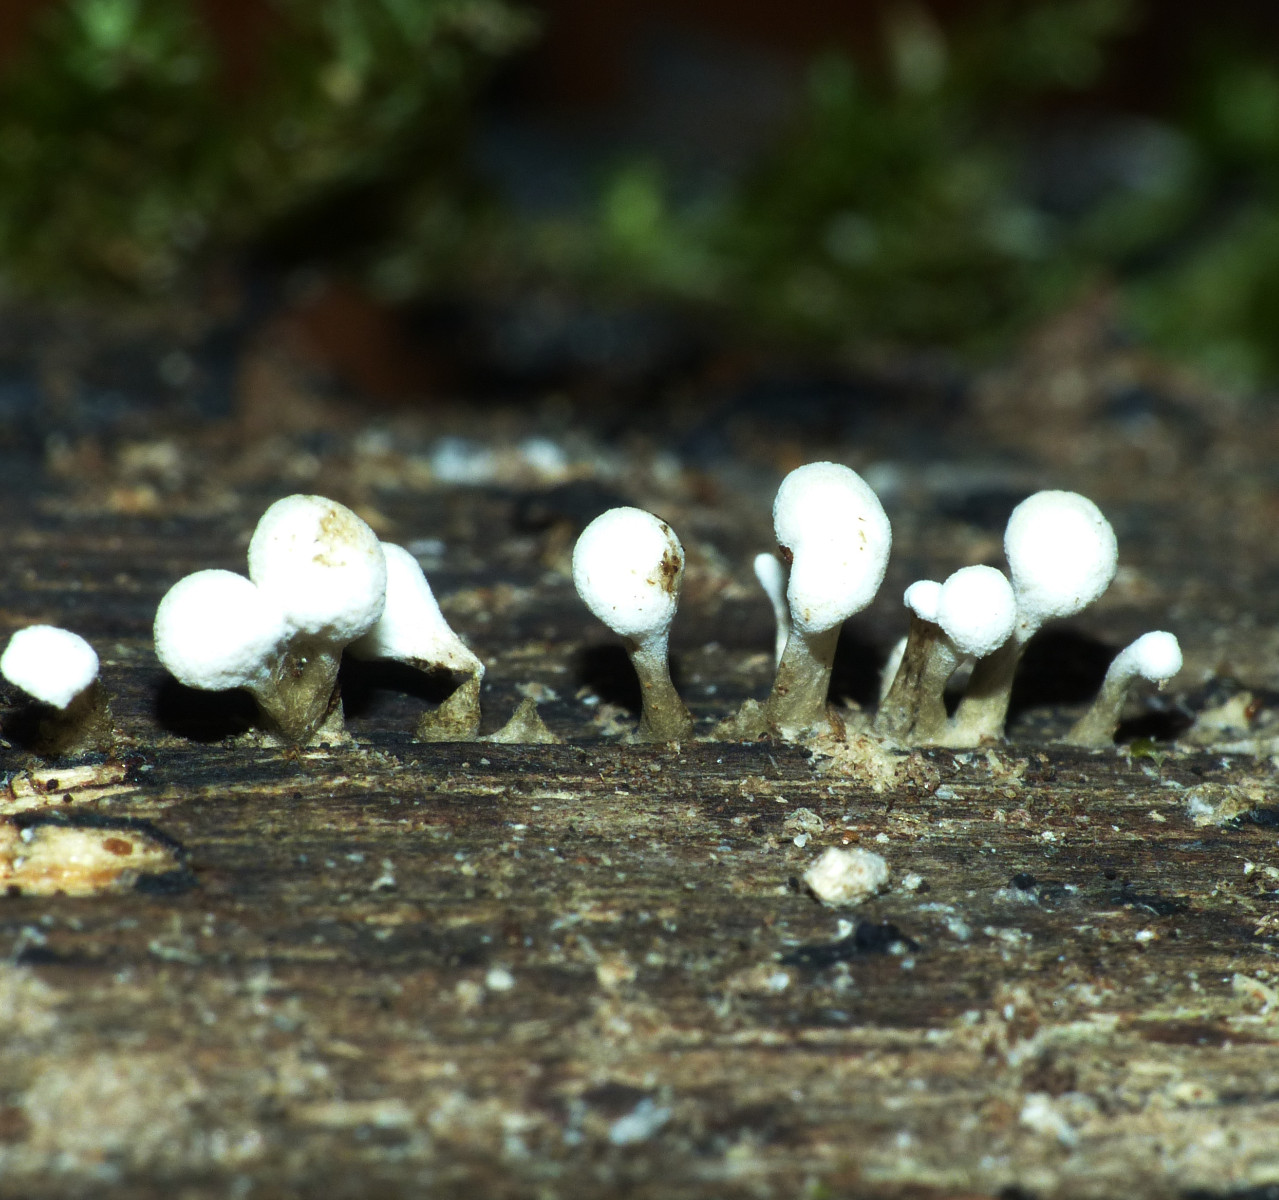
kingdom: Fungi
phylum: Basidiomycota
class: Atractiellomycetes
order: Atractiellales
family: Phleogenaceae
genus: Phleogena
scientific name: Phleogena faginea
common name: pudderkølle
